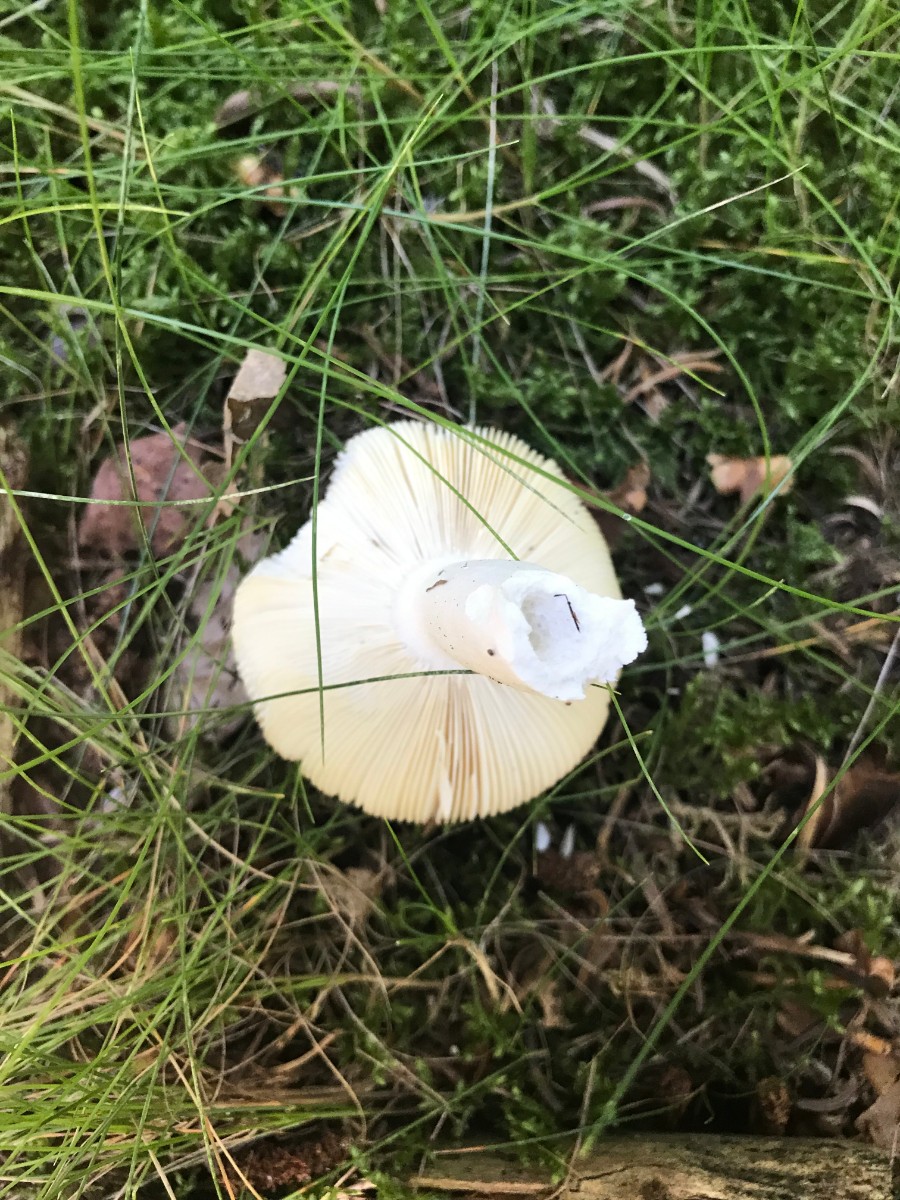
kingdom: Fungi
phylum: Basidiomycota
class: Agaricomycetes
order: Russulales
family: Russulaceae
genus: Russula
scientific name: Russula paludosa
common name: prægtig skørhat
